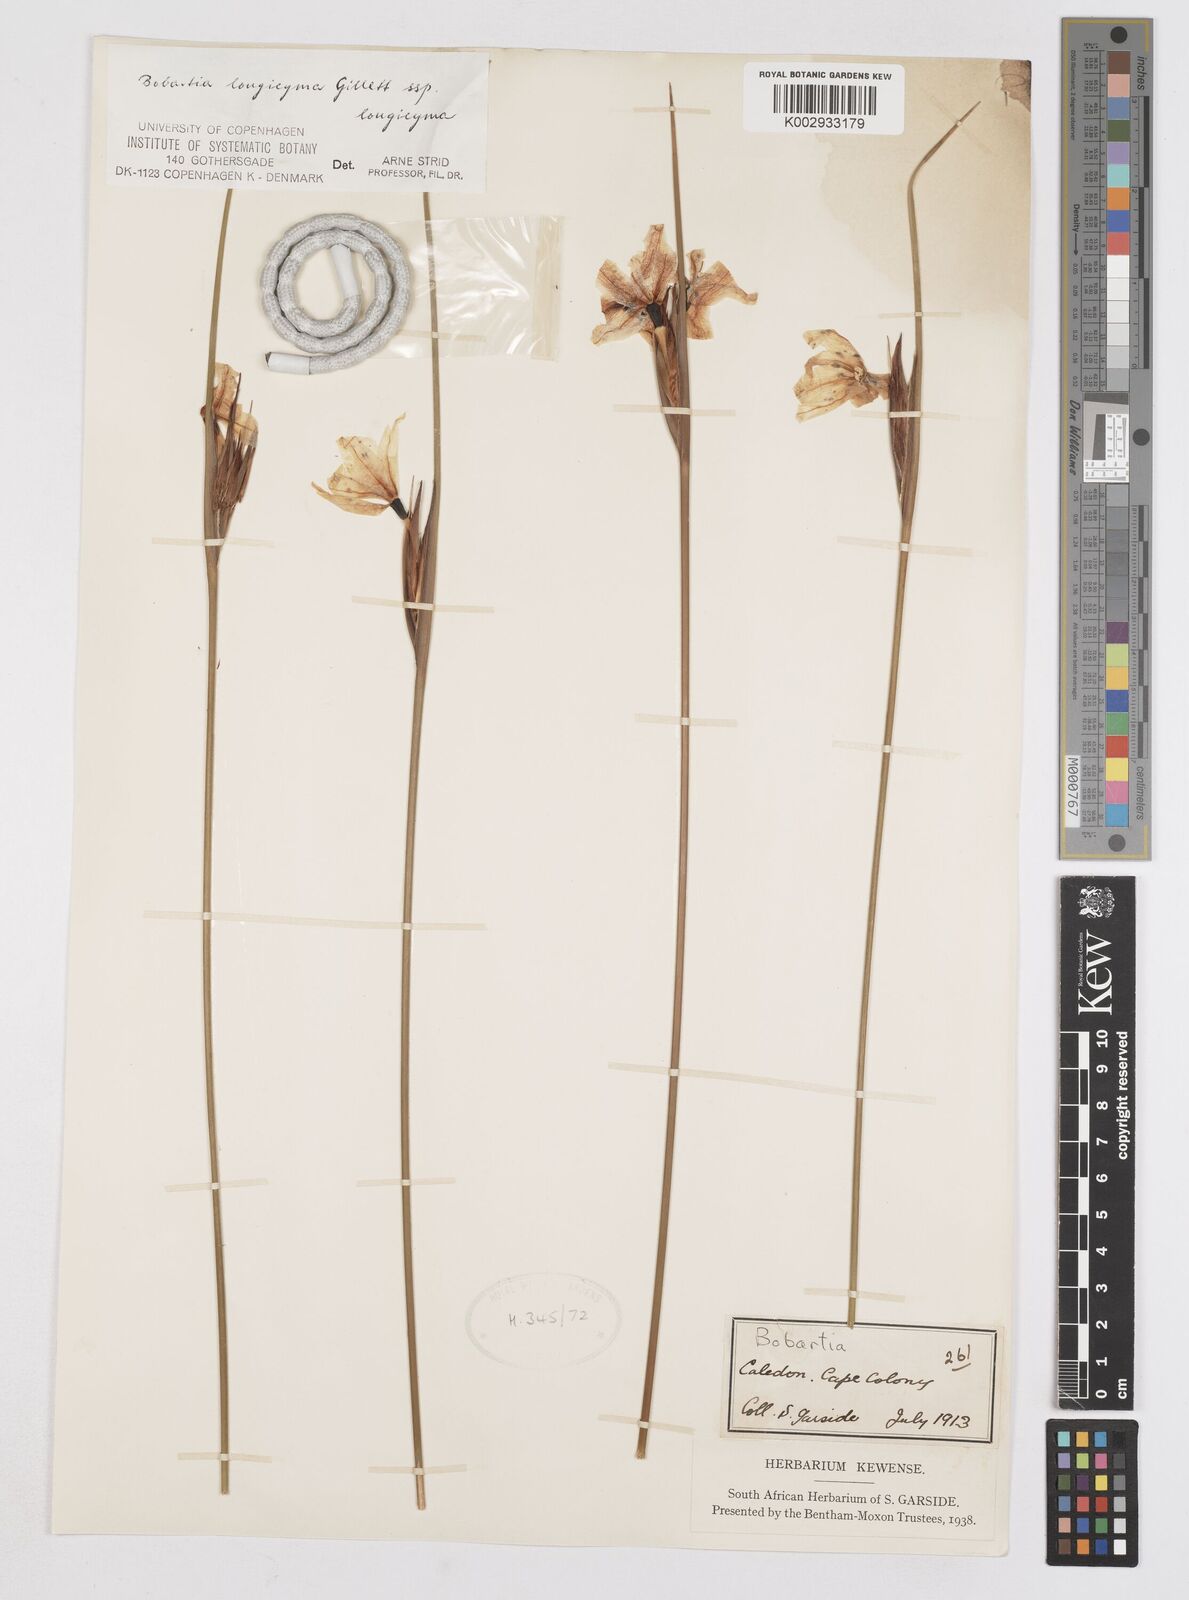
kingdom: Plantae
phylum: Tracheophyta
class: Liliopsida
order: Asparagales
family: Iridaceae
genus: Bobartia
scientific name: Bobartia longicyma
